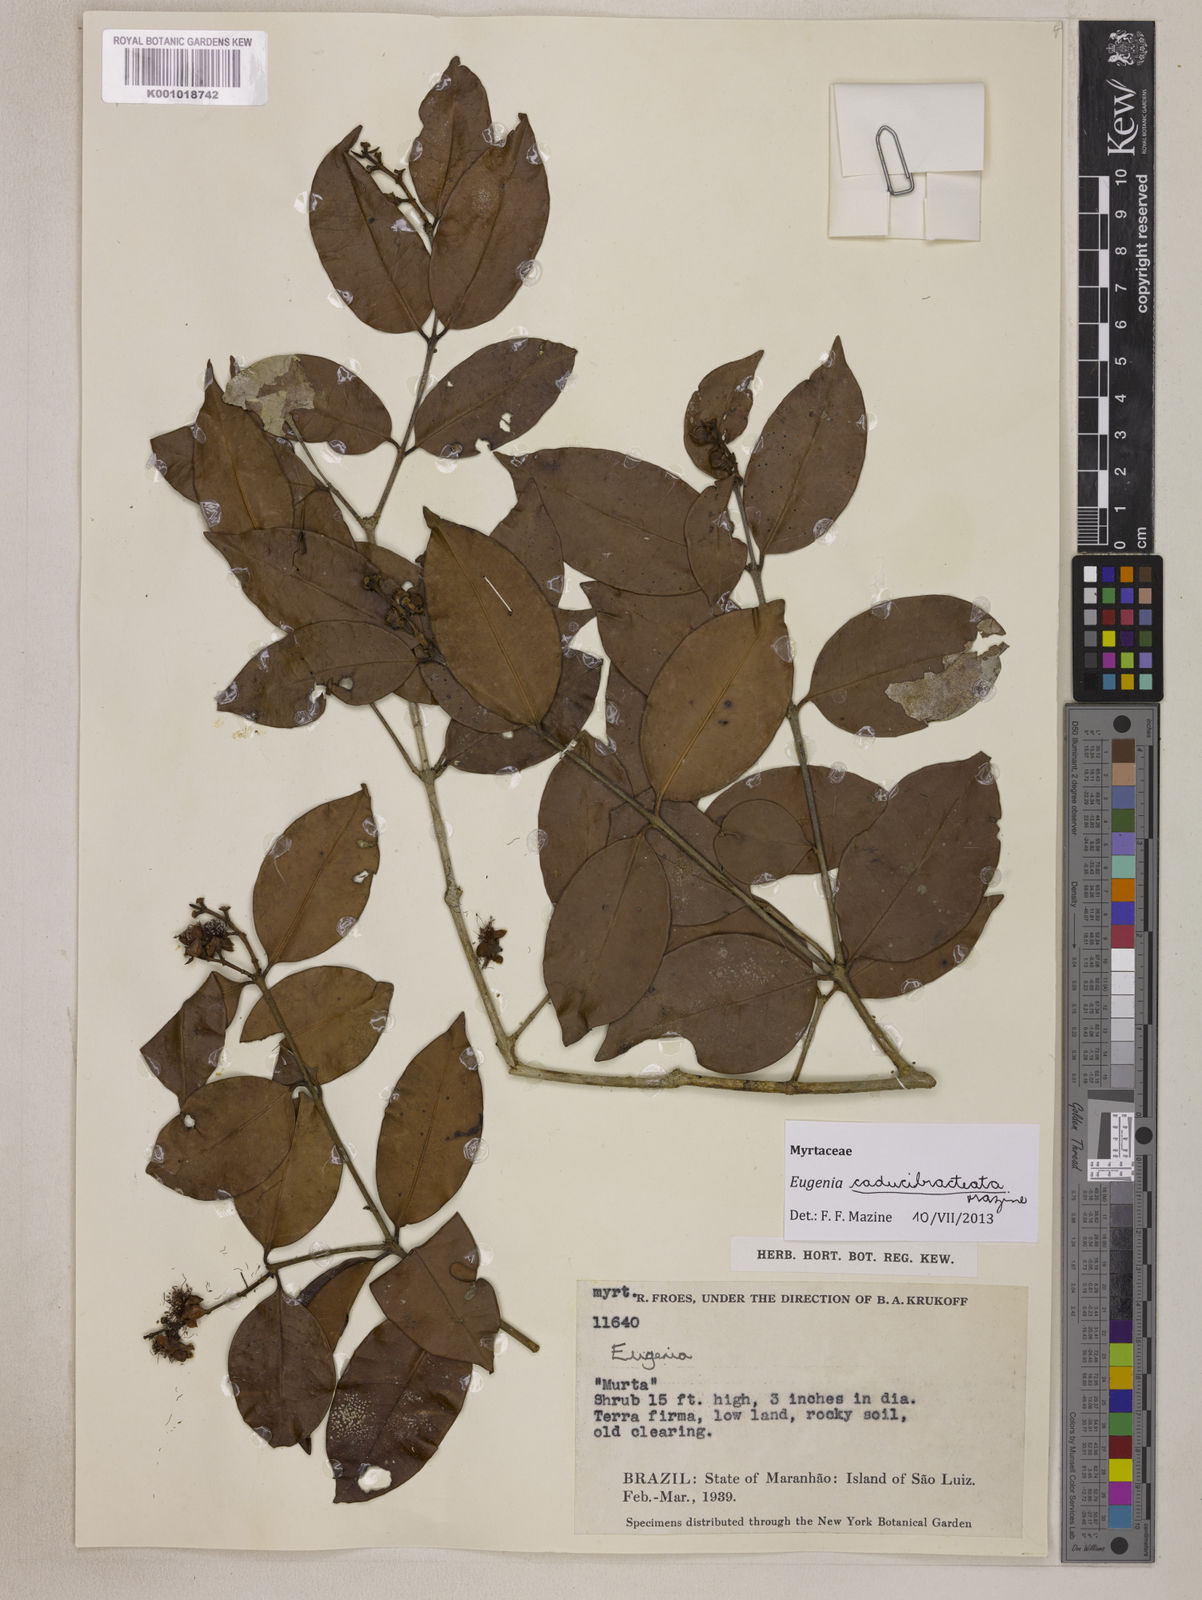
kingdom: Plantae
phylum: Tracheophyta
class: Magnoliopsida
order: Myrtales
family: Myrtaceae
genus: Eugenia
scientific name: Eugenia caducibracteata
